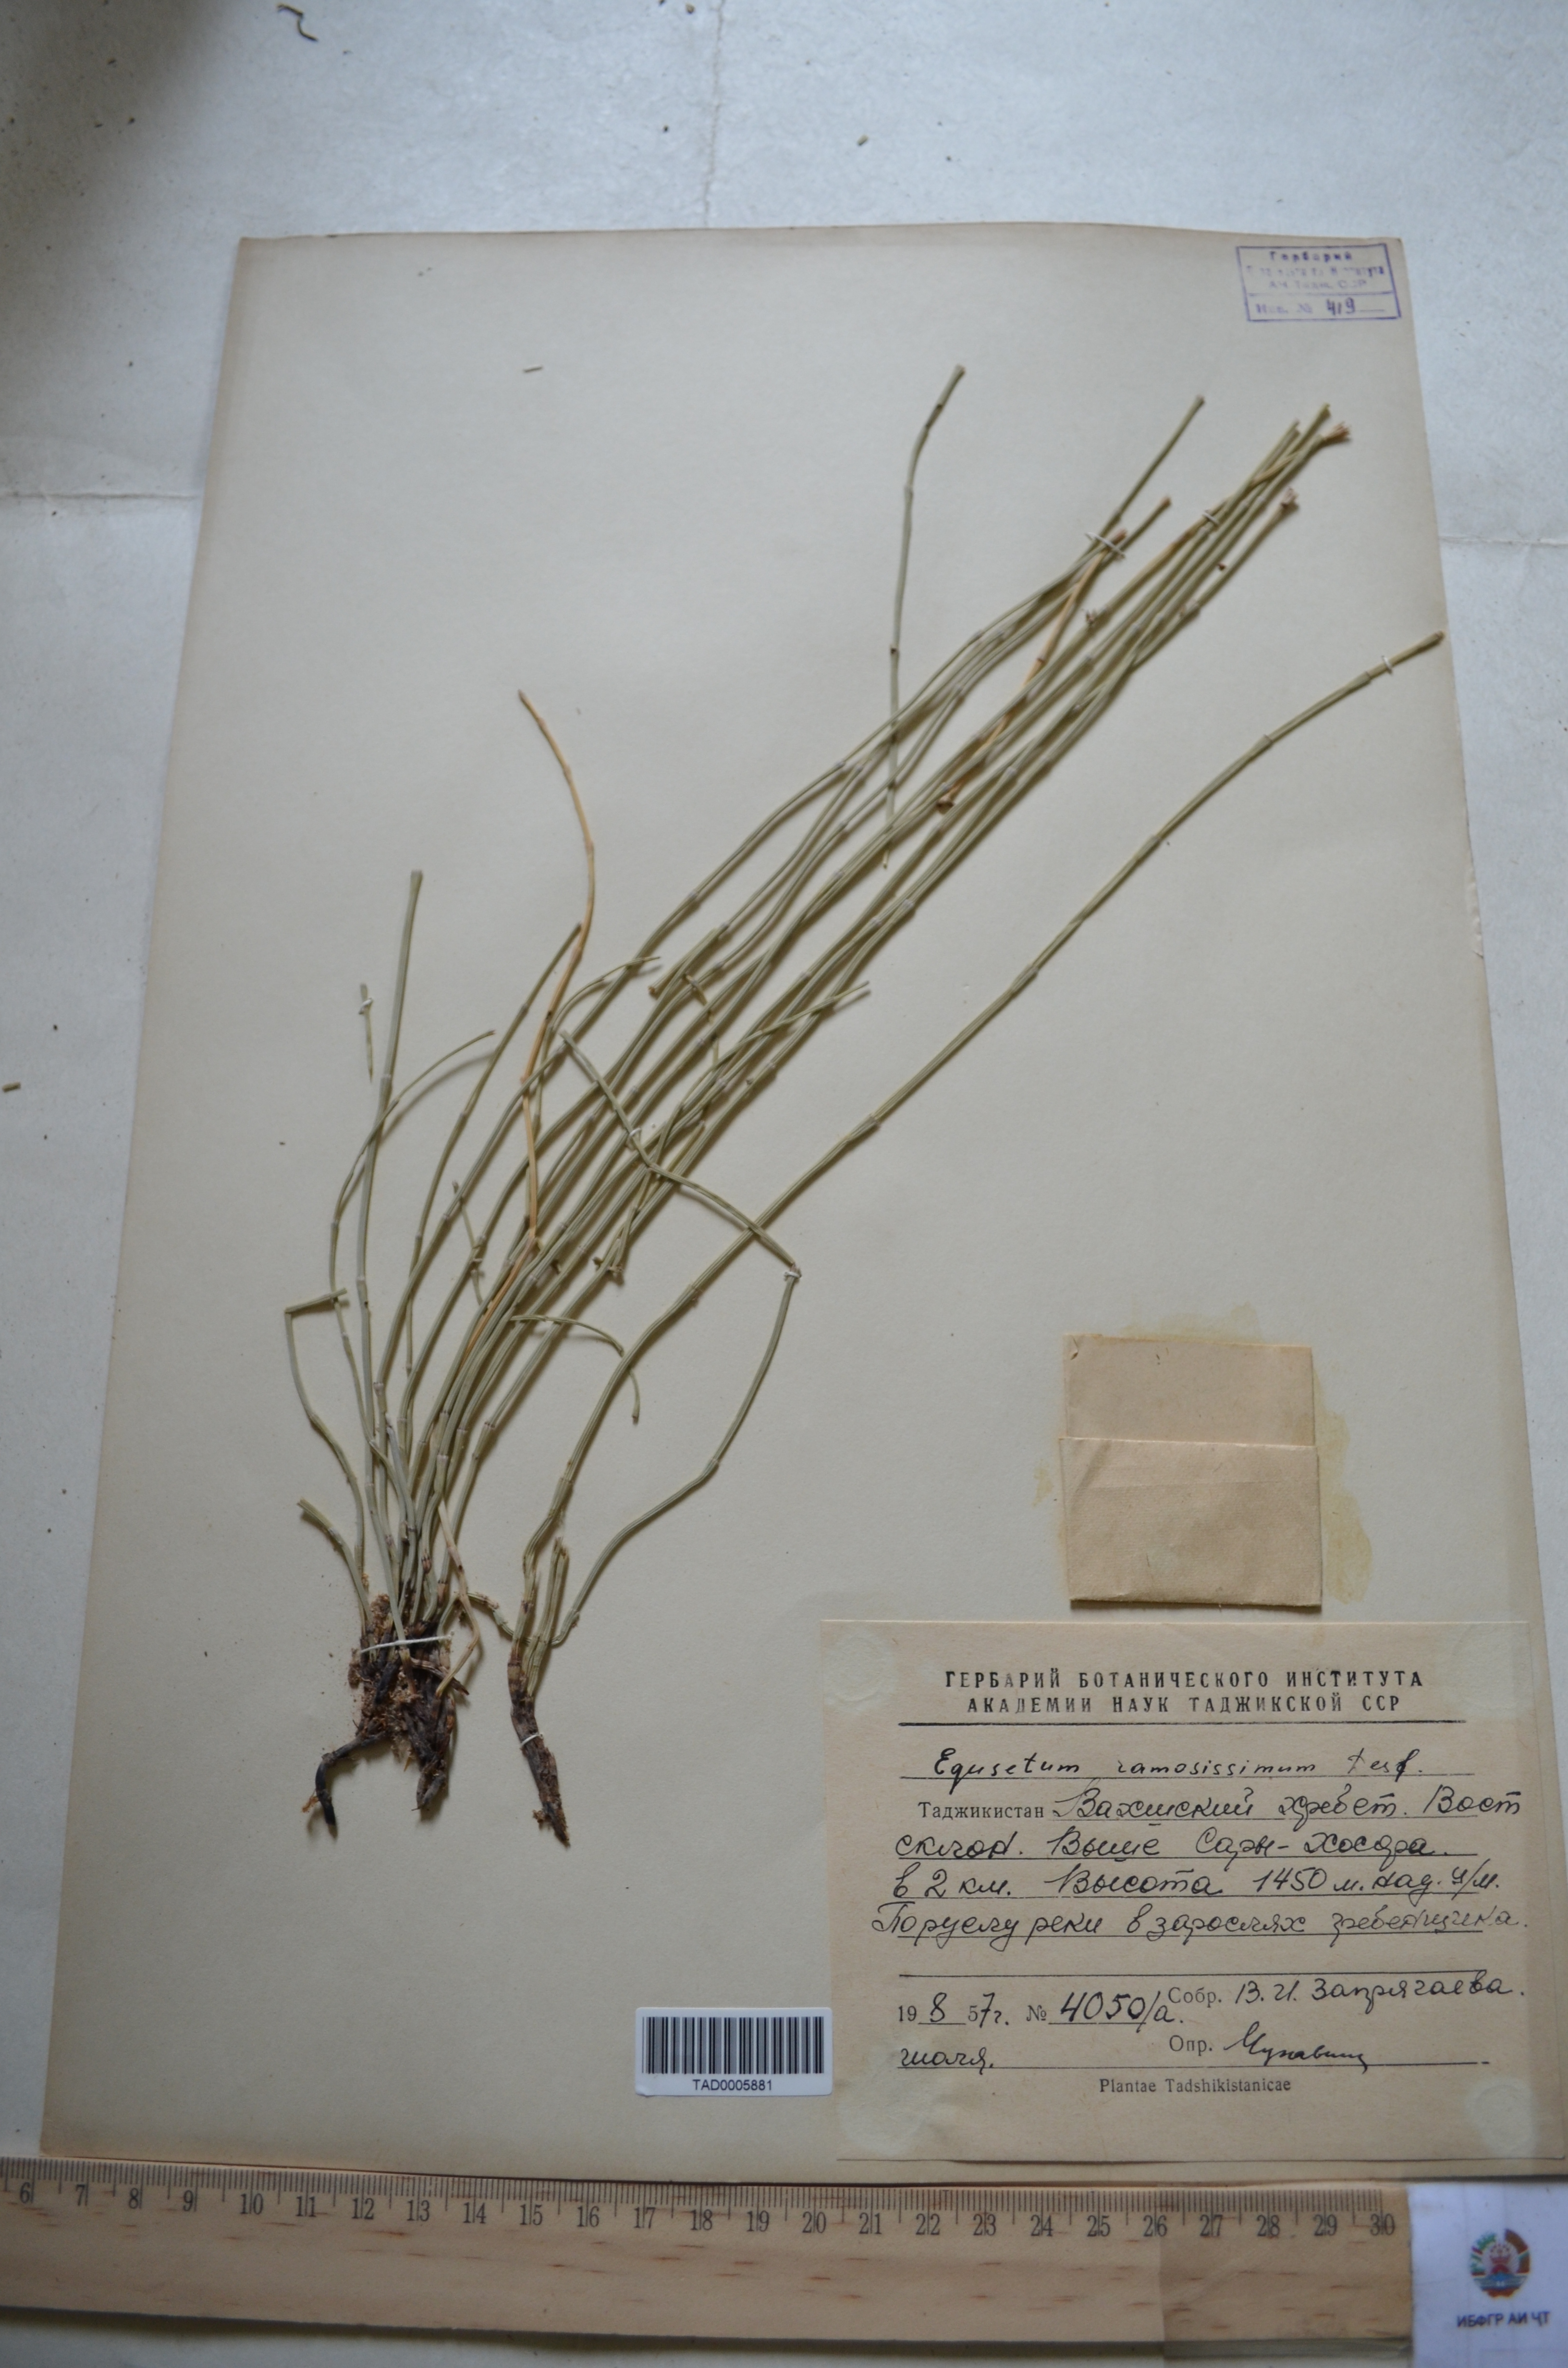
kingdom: Plantae
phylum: Tracheophyta
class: Polypodiopsida
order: Equisetales
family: Equisetaceae
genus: Equisetum
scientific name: Equisetum ramosissimum
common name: Branched horsetail
